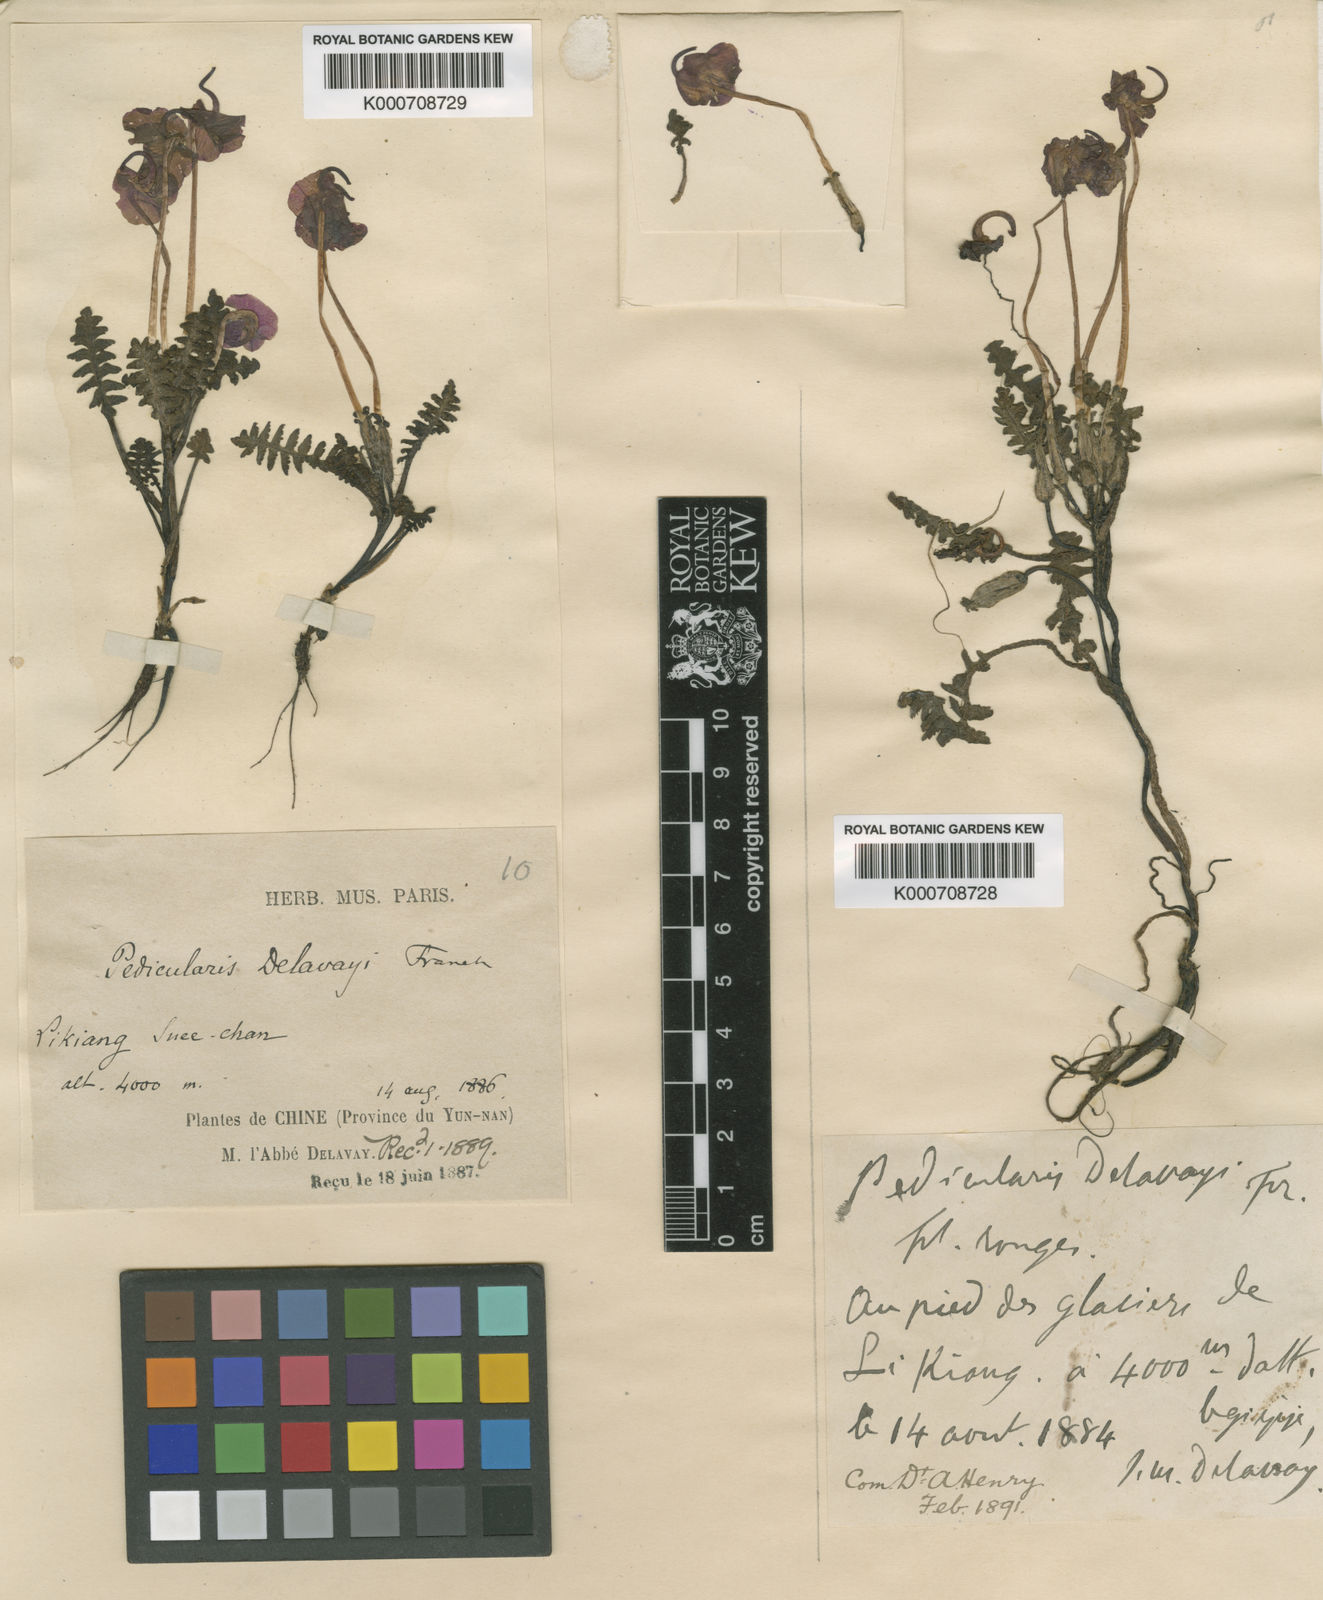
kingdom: Plantae
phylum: Tracheophyta
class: Magnoliopsida
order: Lamiales
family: Orobanchaceae
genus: Pedicularis
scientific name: Pedicularis delavayi
